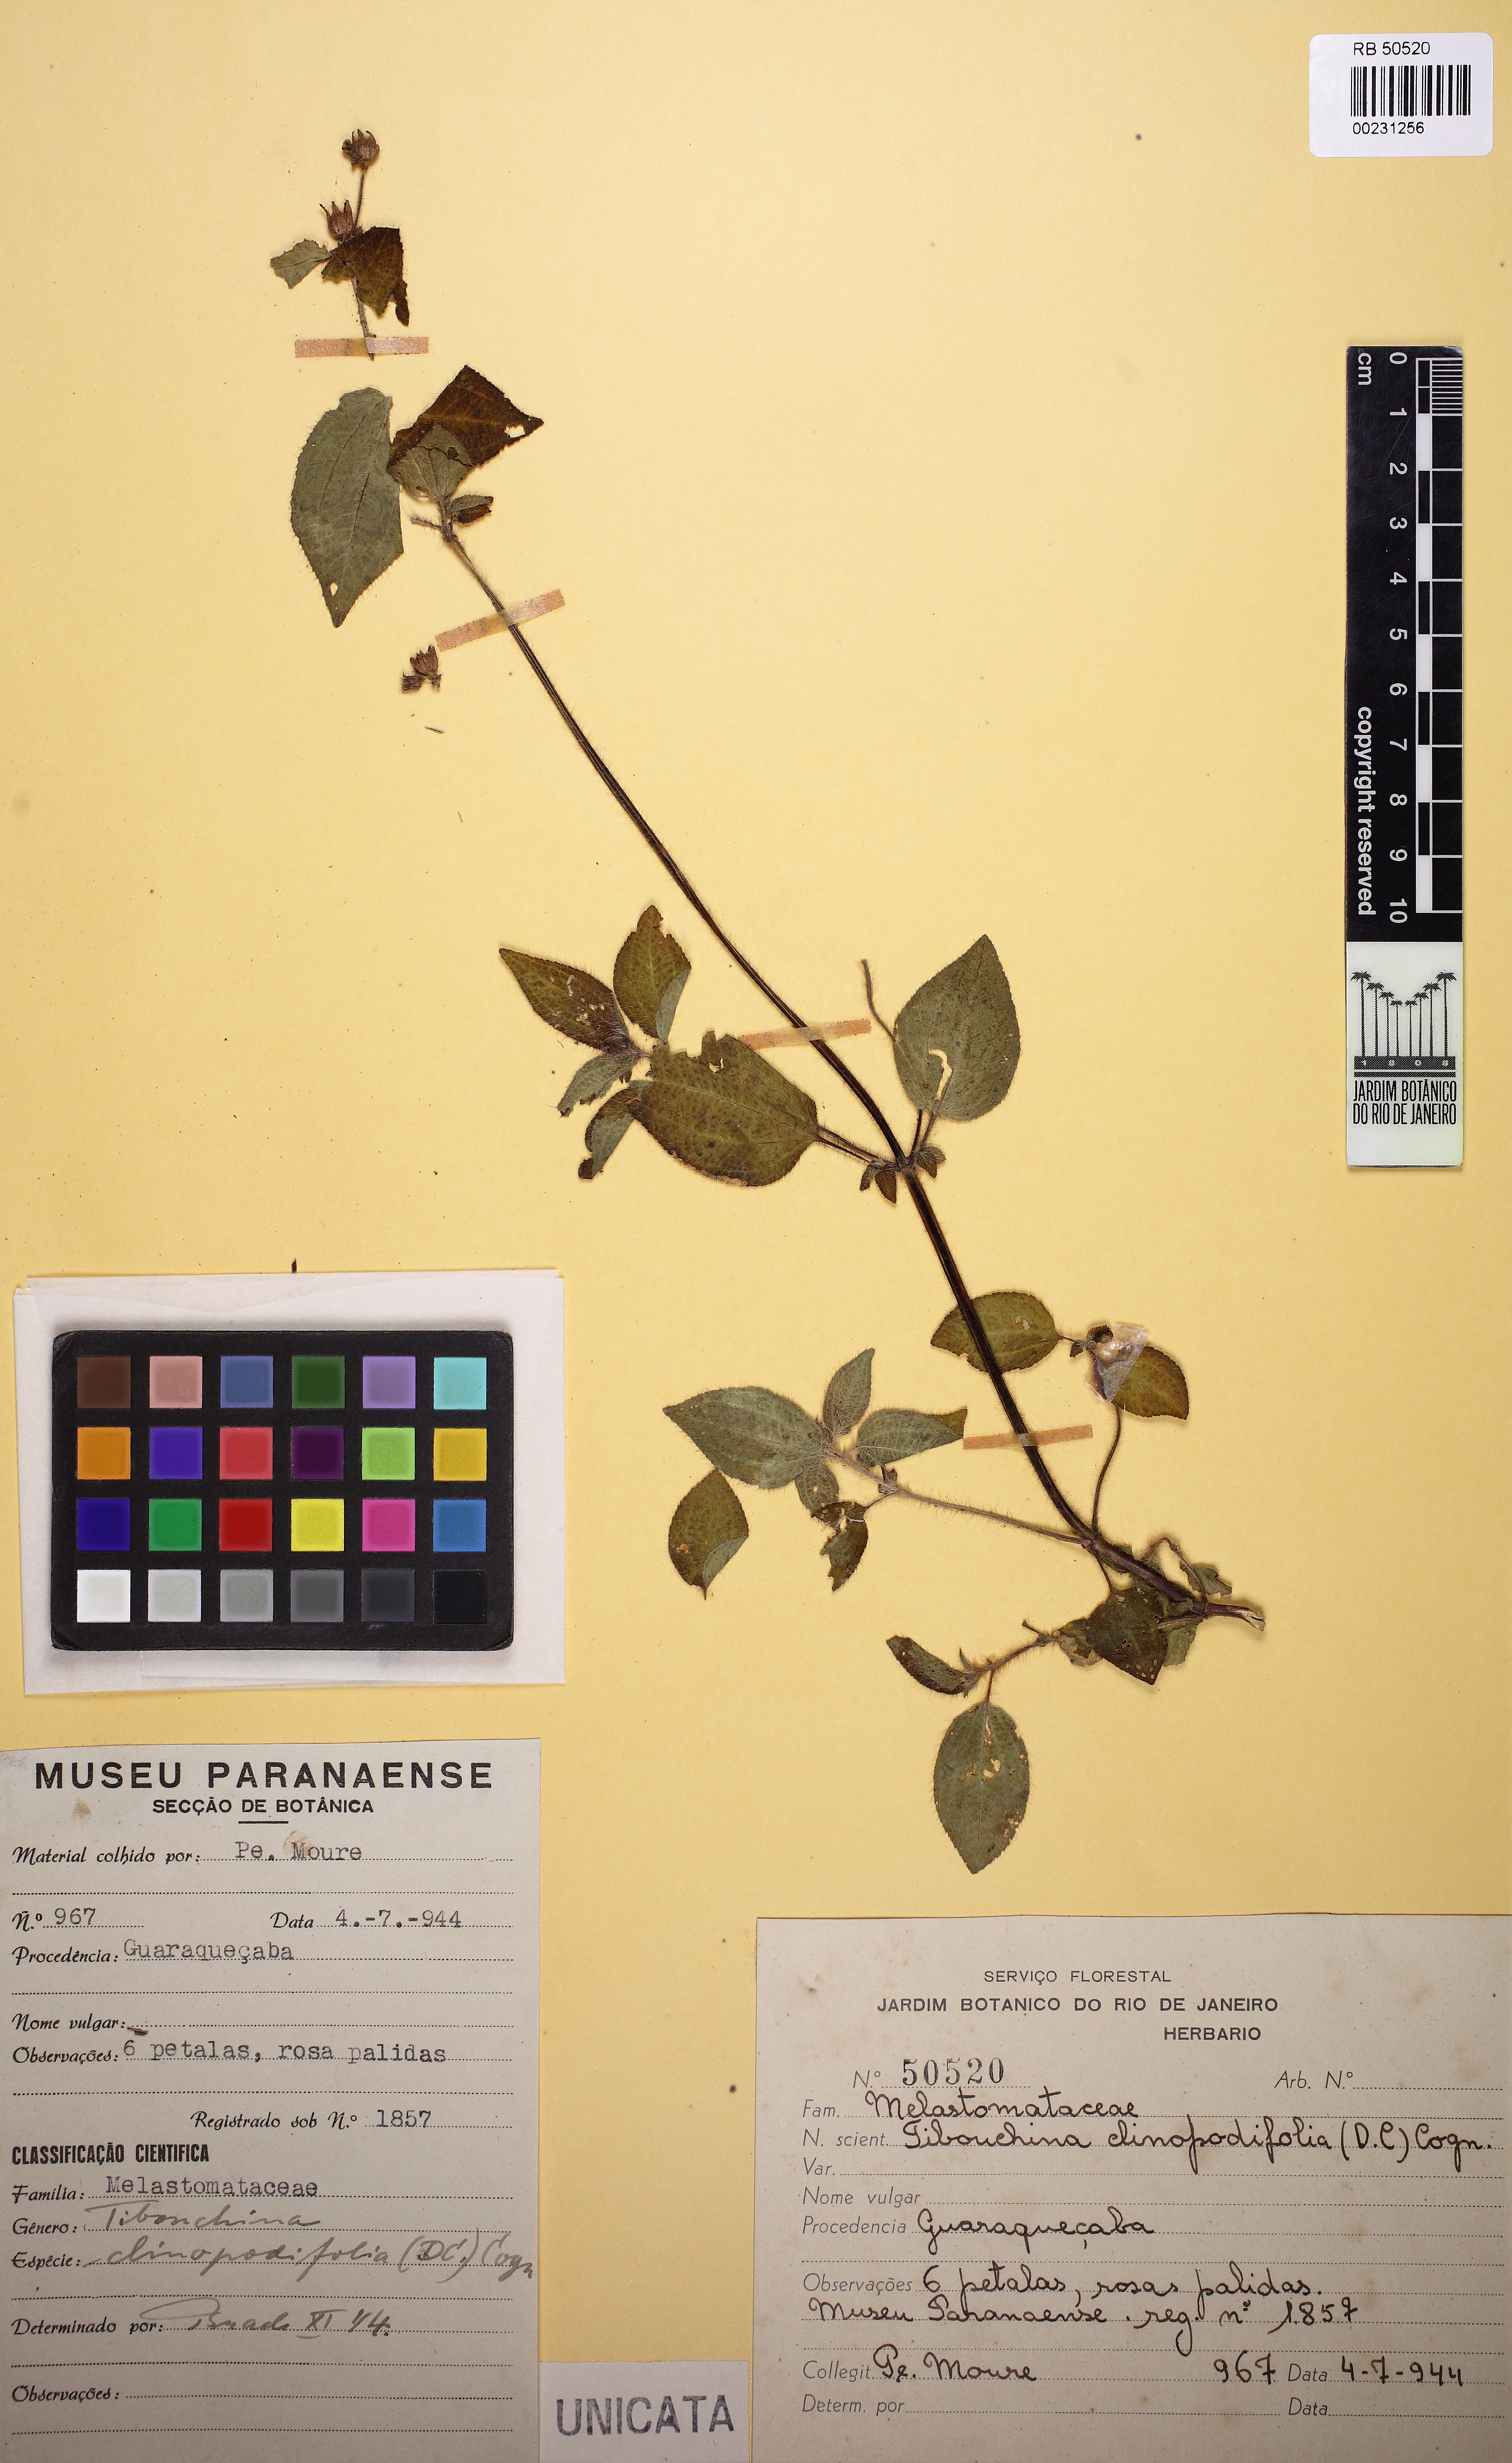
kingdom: Plantae
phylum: Tracheophyta
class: Magnoliopsida
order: Myrtales
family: Melastomataceae
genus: Chaetogastra
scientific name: Chaetogastra clinopodifolia
